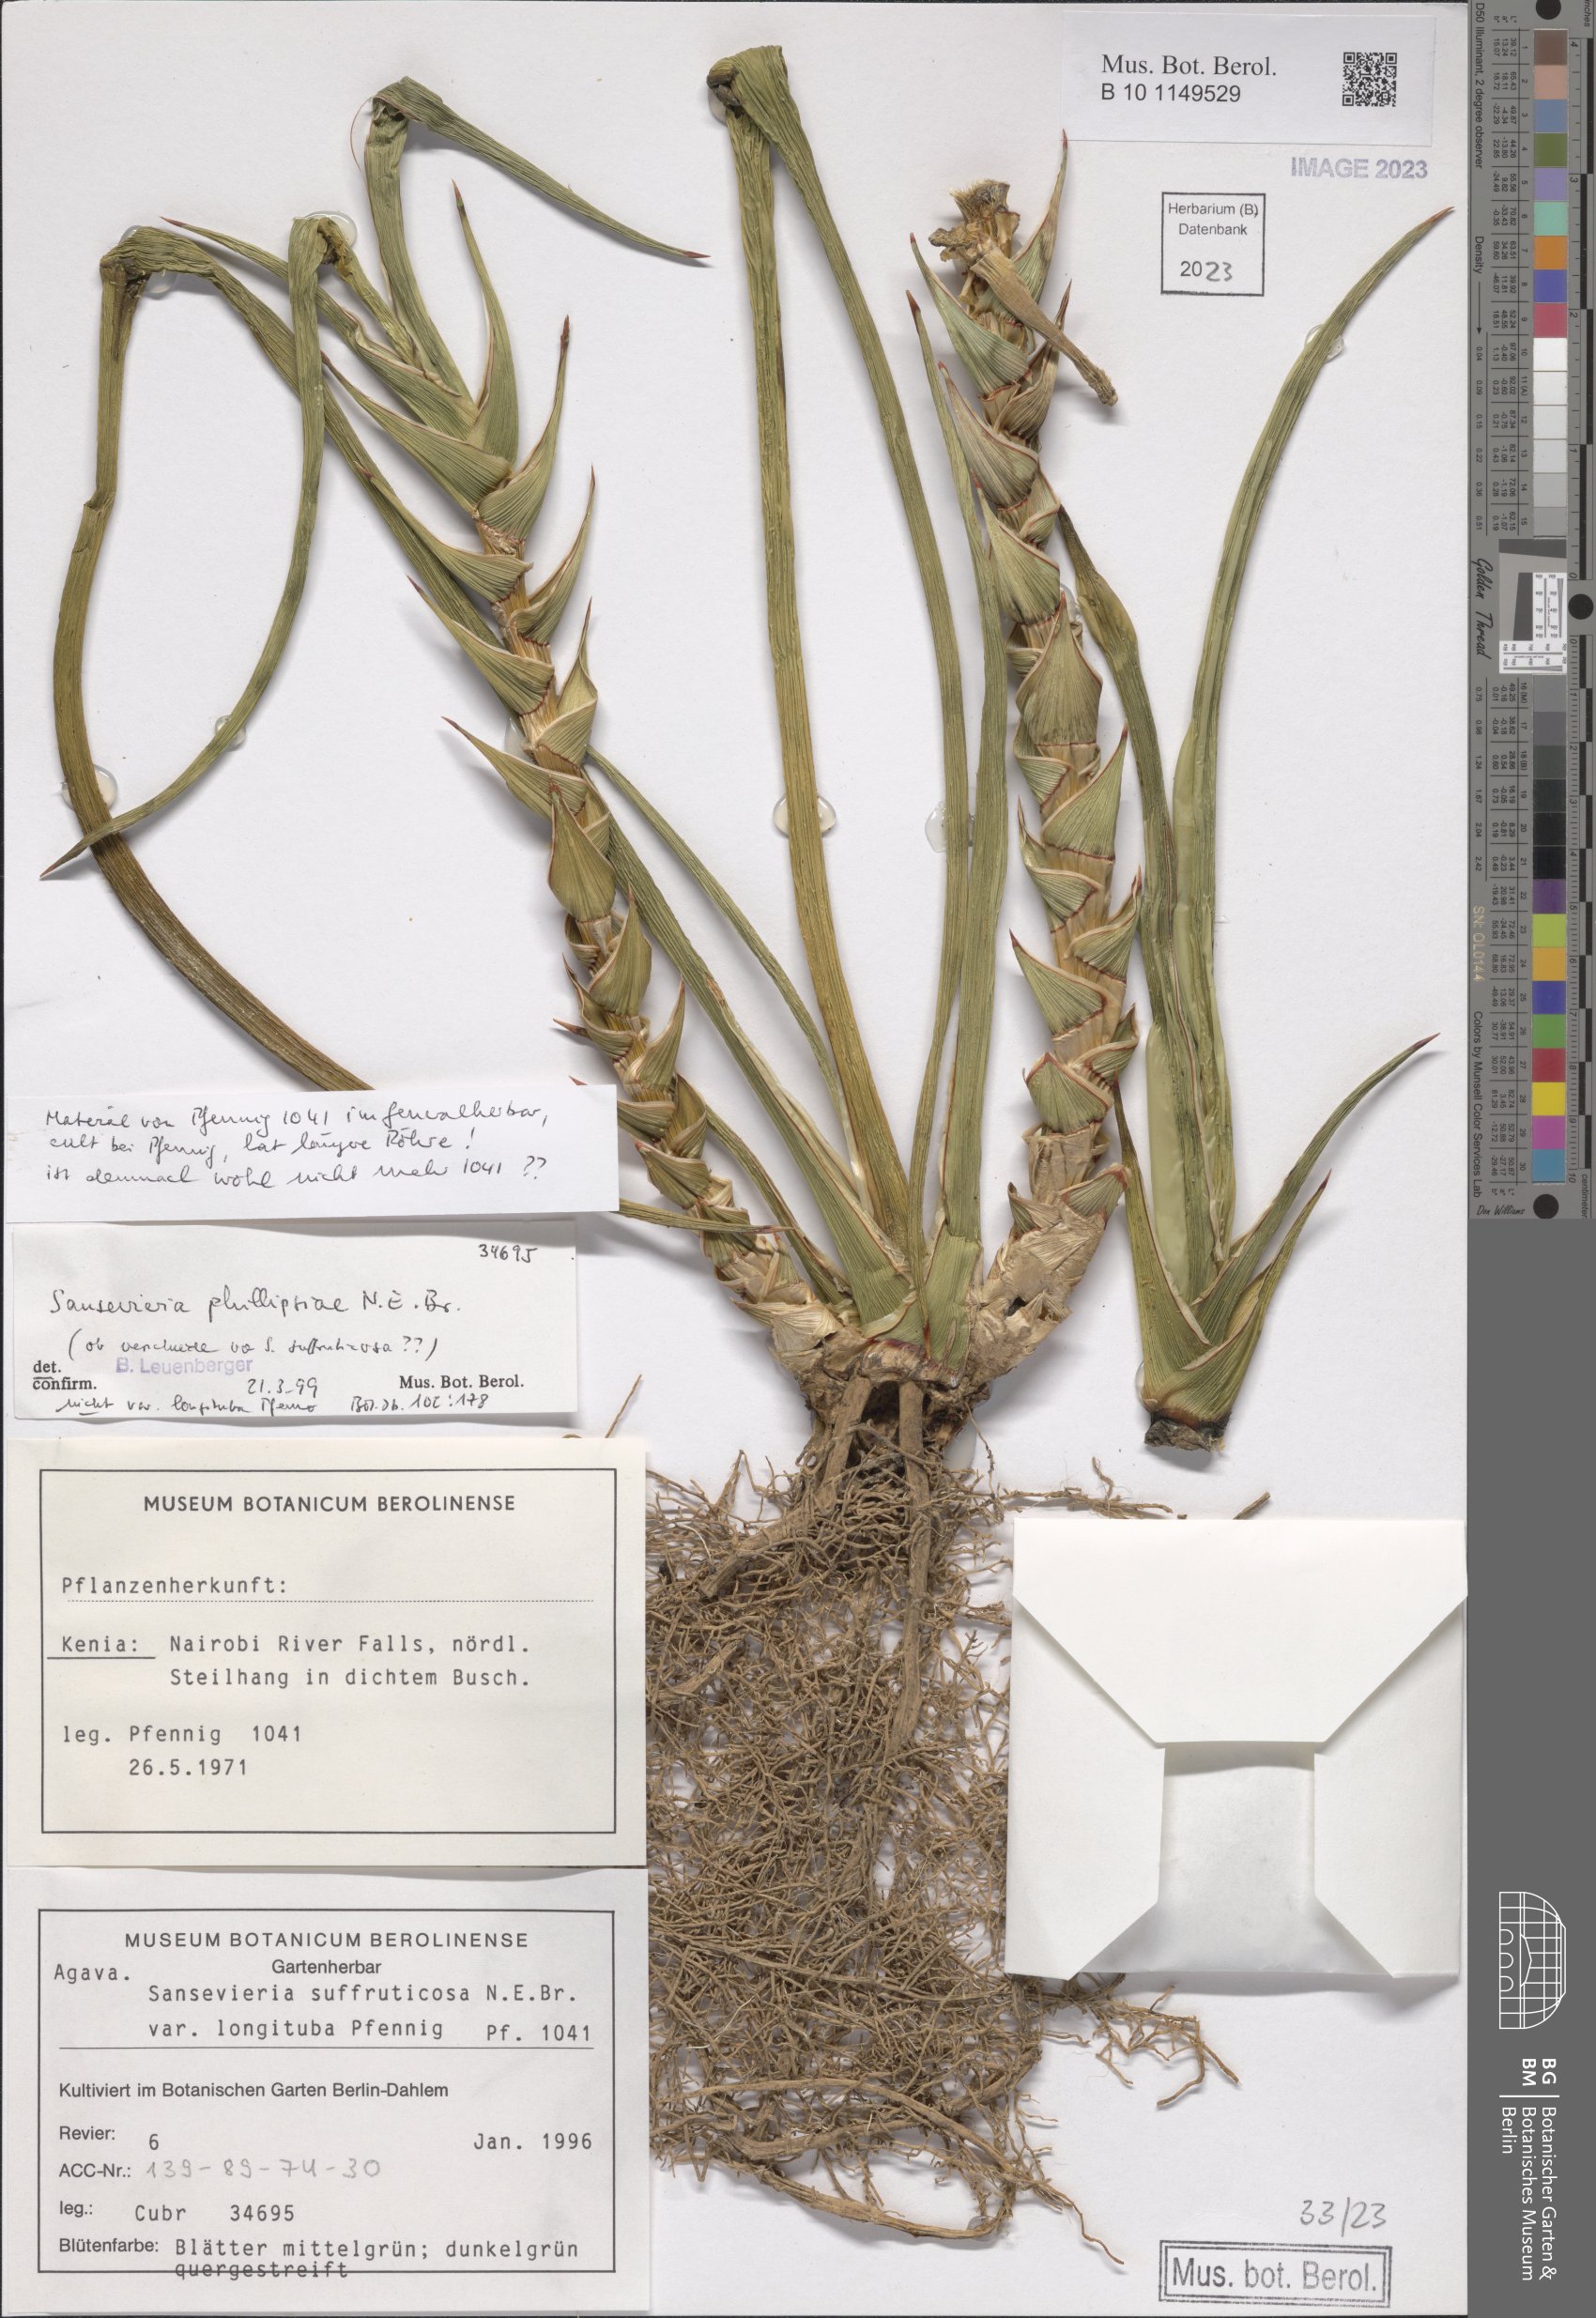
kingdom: Plantae
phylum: Tracheophyta
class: Liliopsida
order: Asparagales
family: Asparagaceae
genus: Dracaena
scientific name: Dracaena phillipsiae
